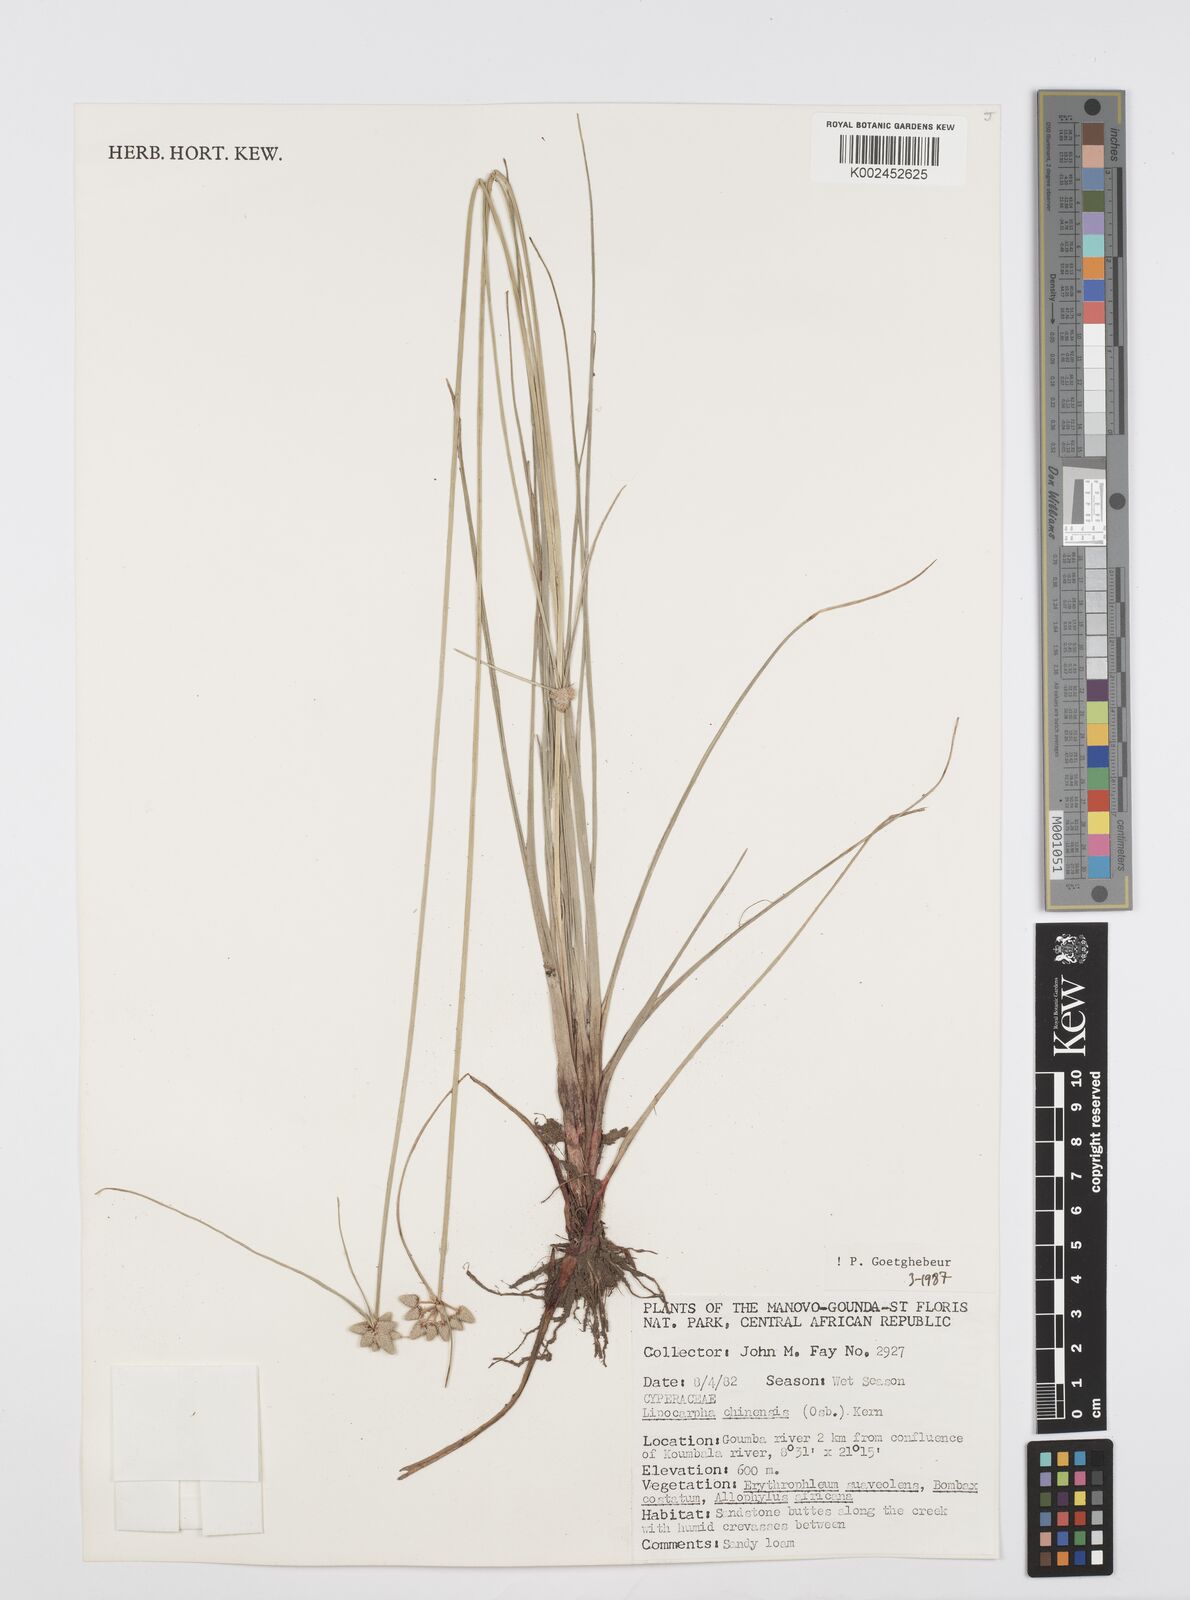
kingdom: Plantae
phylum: Tracheophyta
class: Liliopsida
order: Poales
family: Cyperaceae
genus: Cyperus
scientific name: Cyperus albescens
